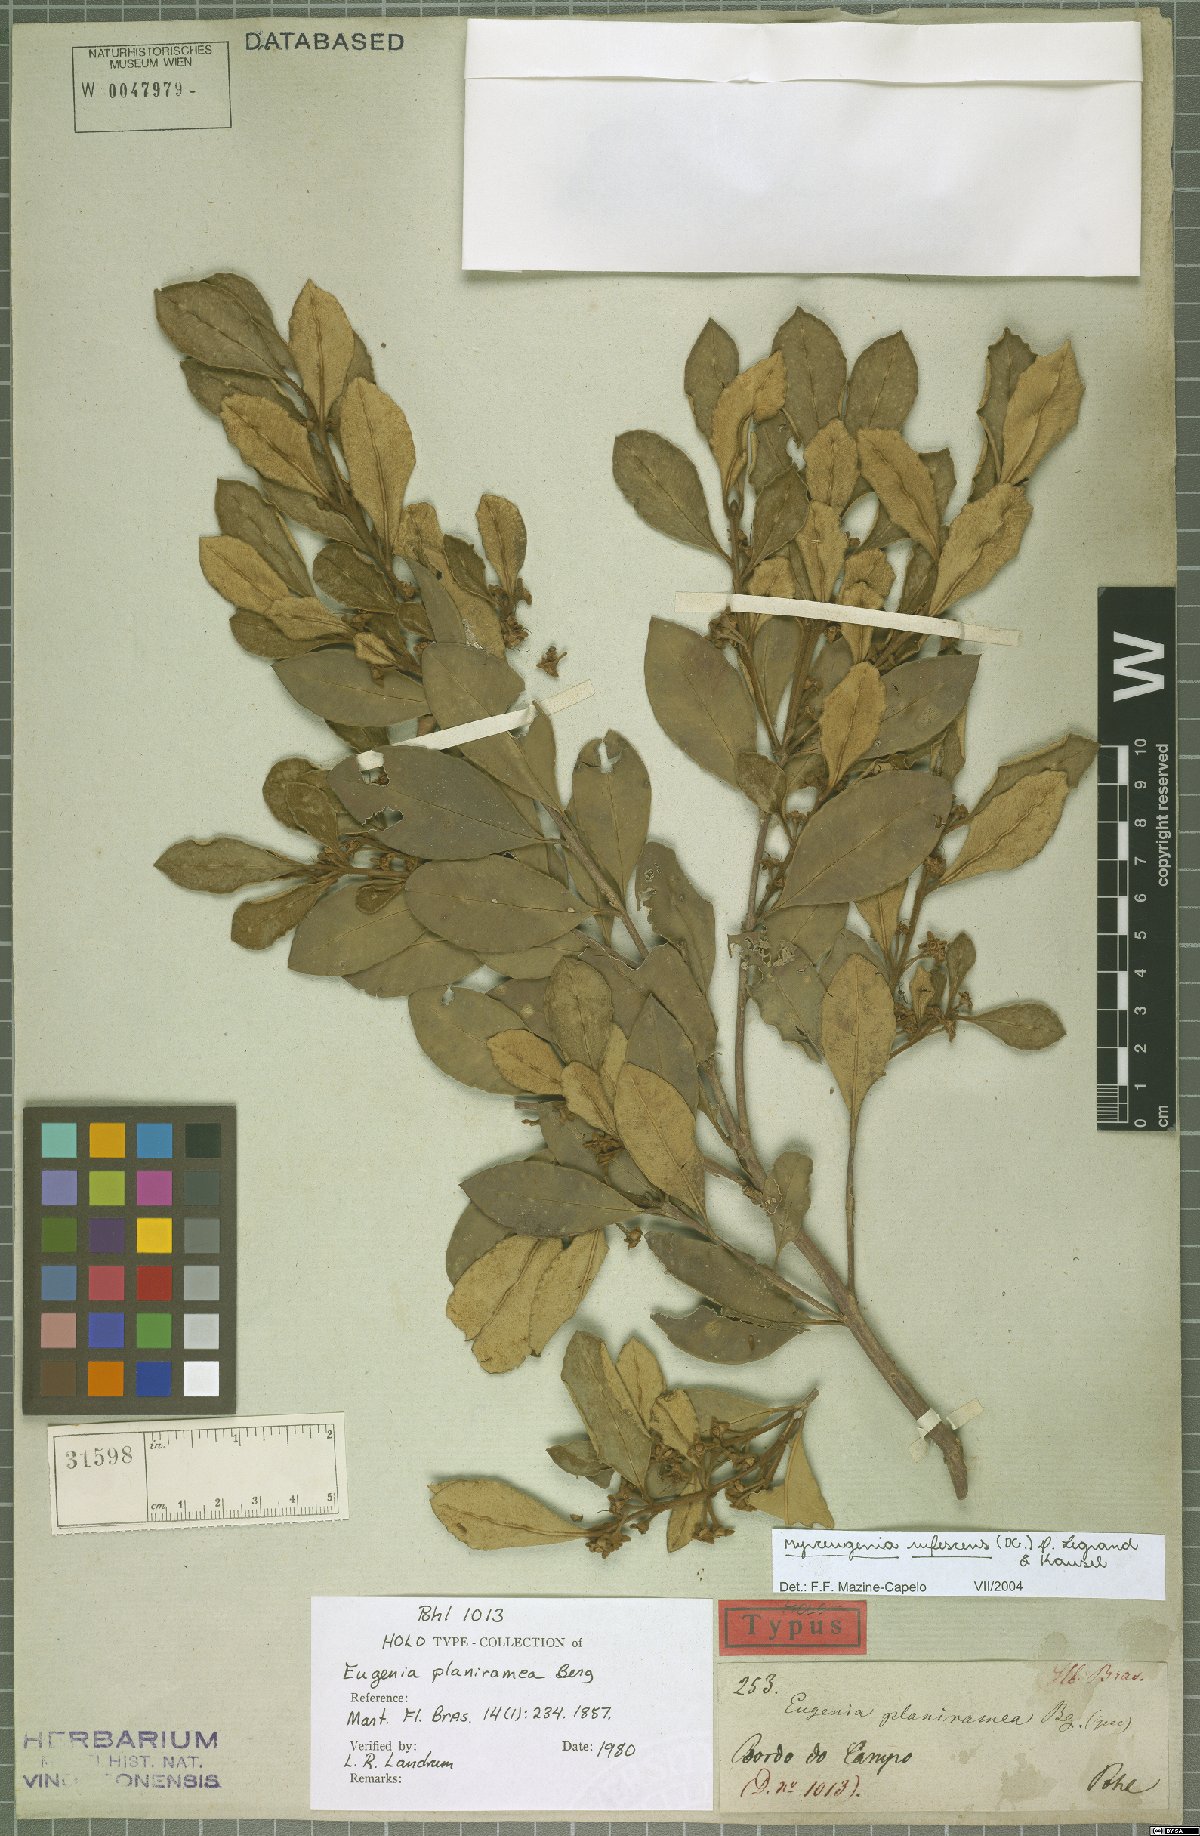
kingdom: Plantae
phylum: Tracheophyta
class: Magnoliopsida
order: Myrtales
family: Myrtaceae
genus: Myrceugenia
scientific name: Myrceugenia rufescens
